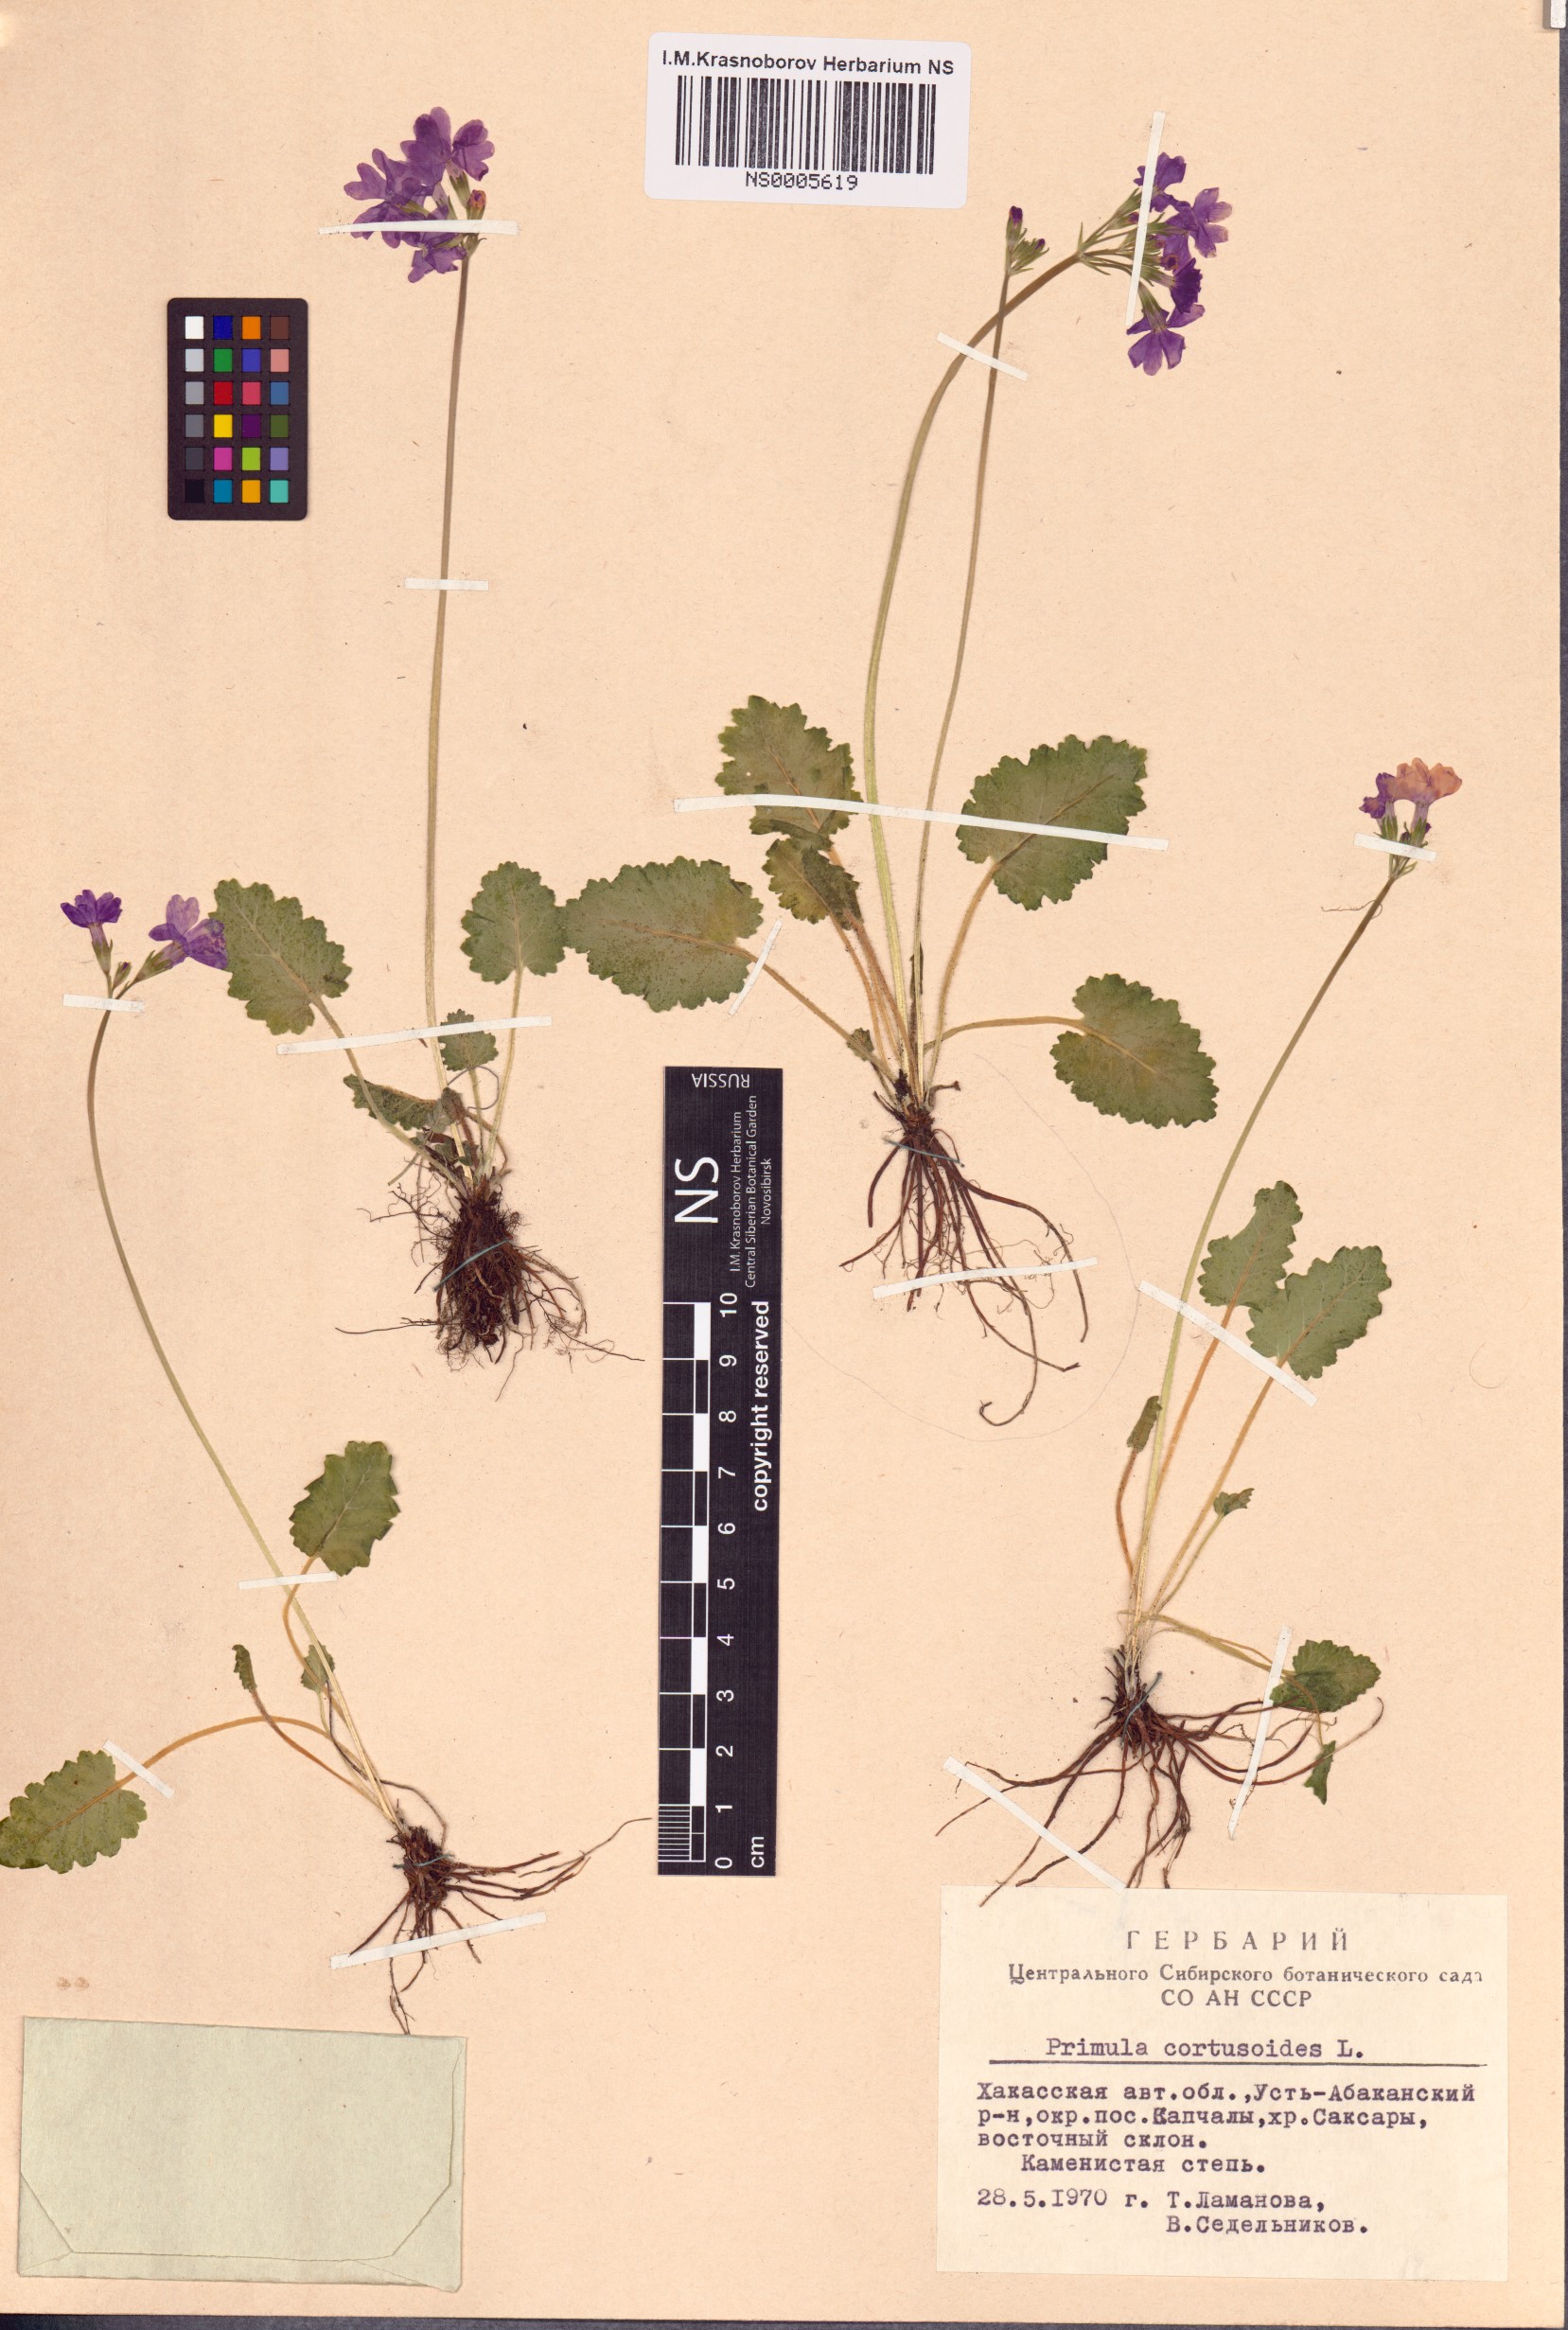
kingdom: Plantae
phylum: Tracheophyta
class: Magnoliopsida
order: Ericales
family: Primulaceae
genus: Primula
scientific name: Primula cortusoides
